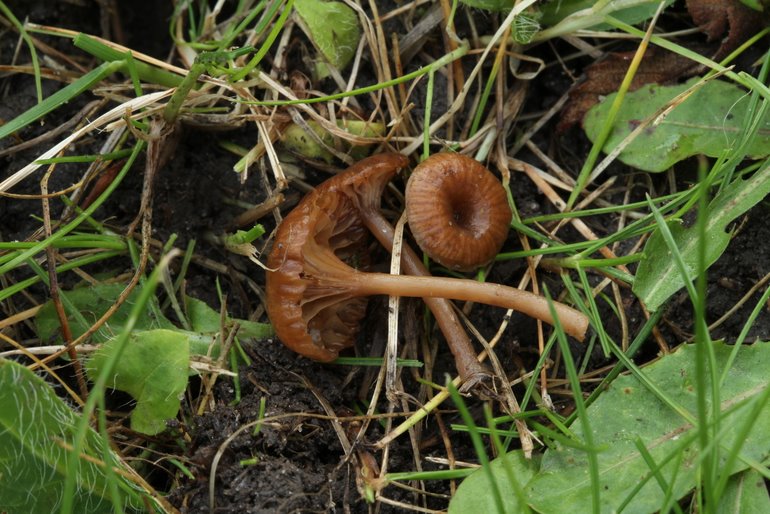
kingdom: Fungi
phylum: Basidiomycota
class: Agaricomycetes
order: Agaricales
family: Tricholomataceae
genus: Omphalina
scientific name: Omphalina pyxidata
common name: rødbrun navlehat
